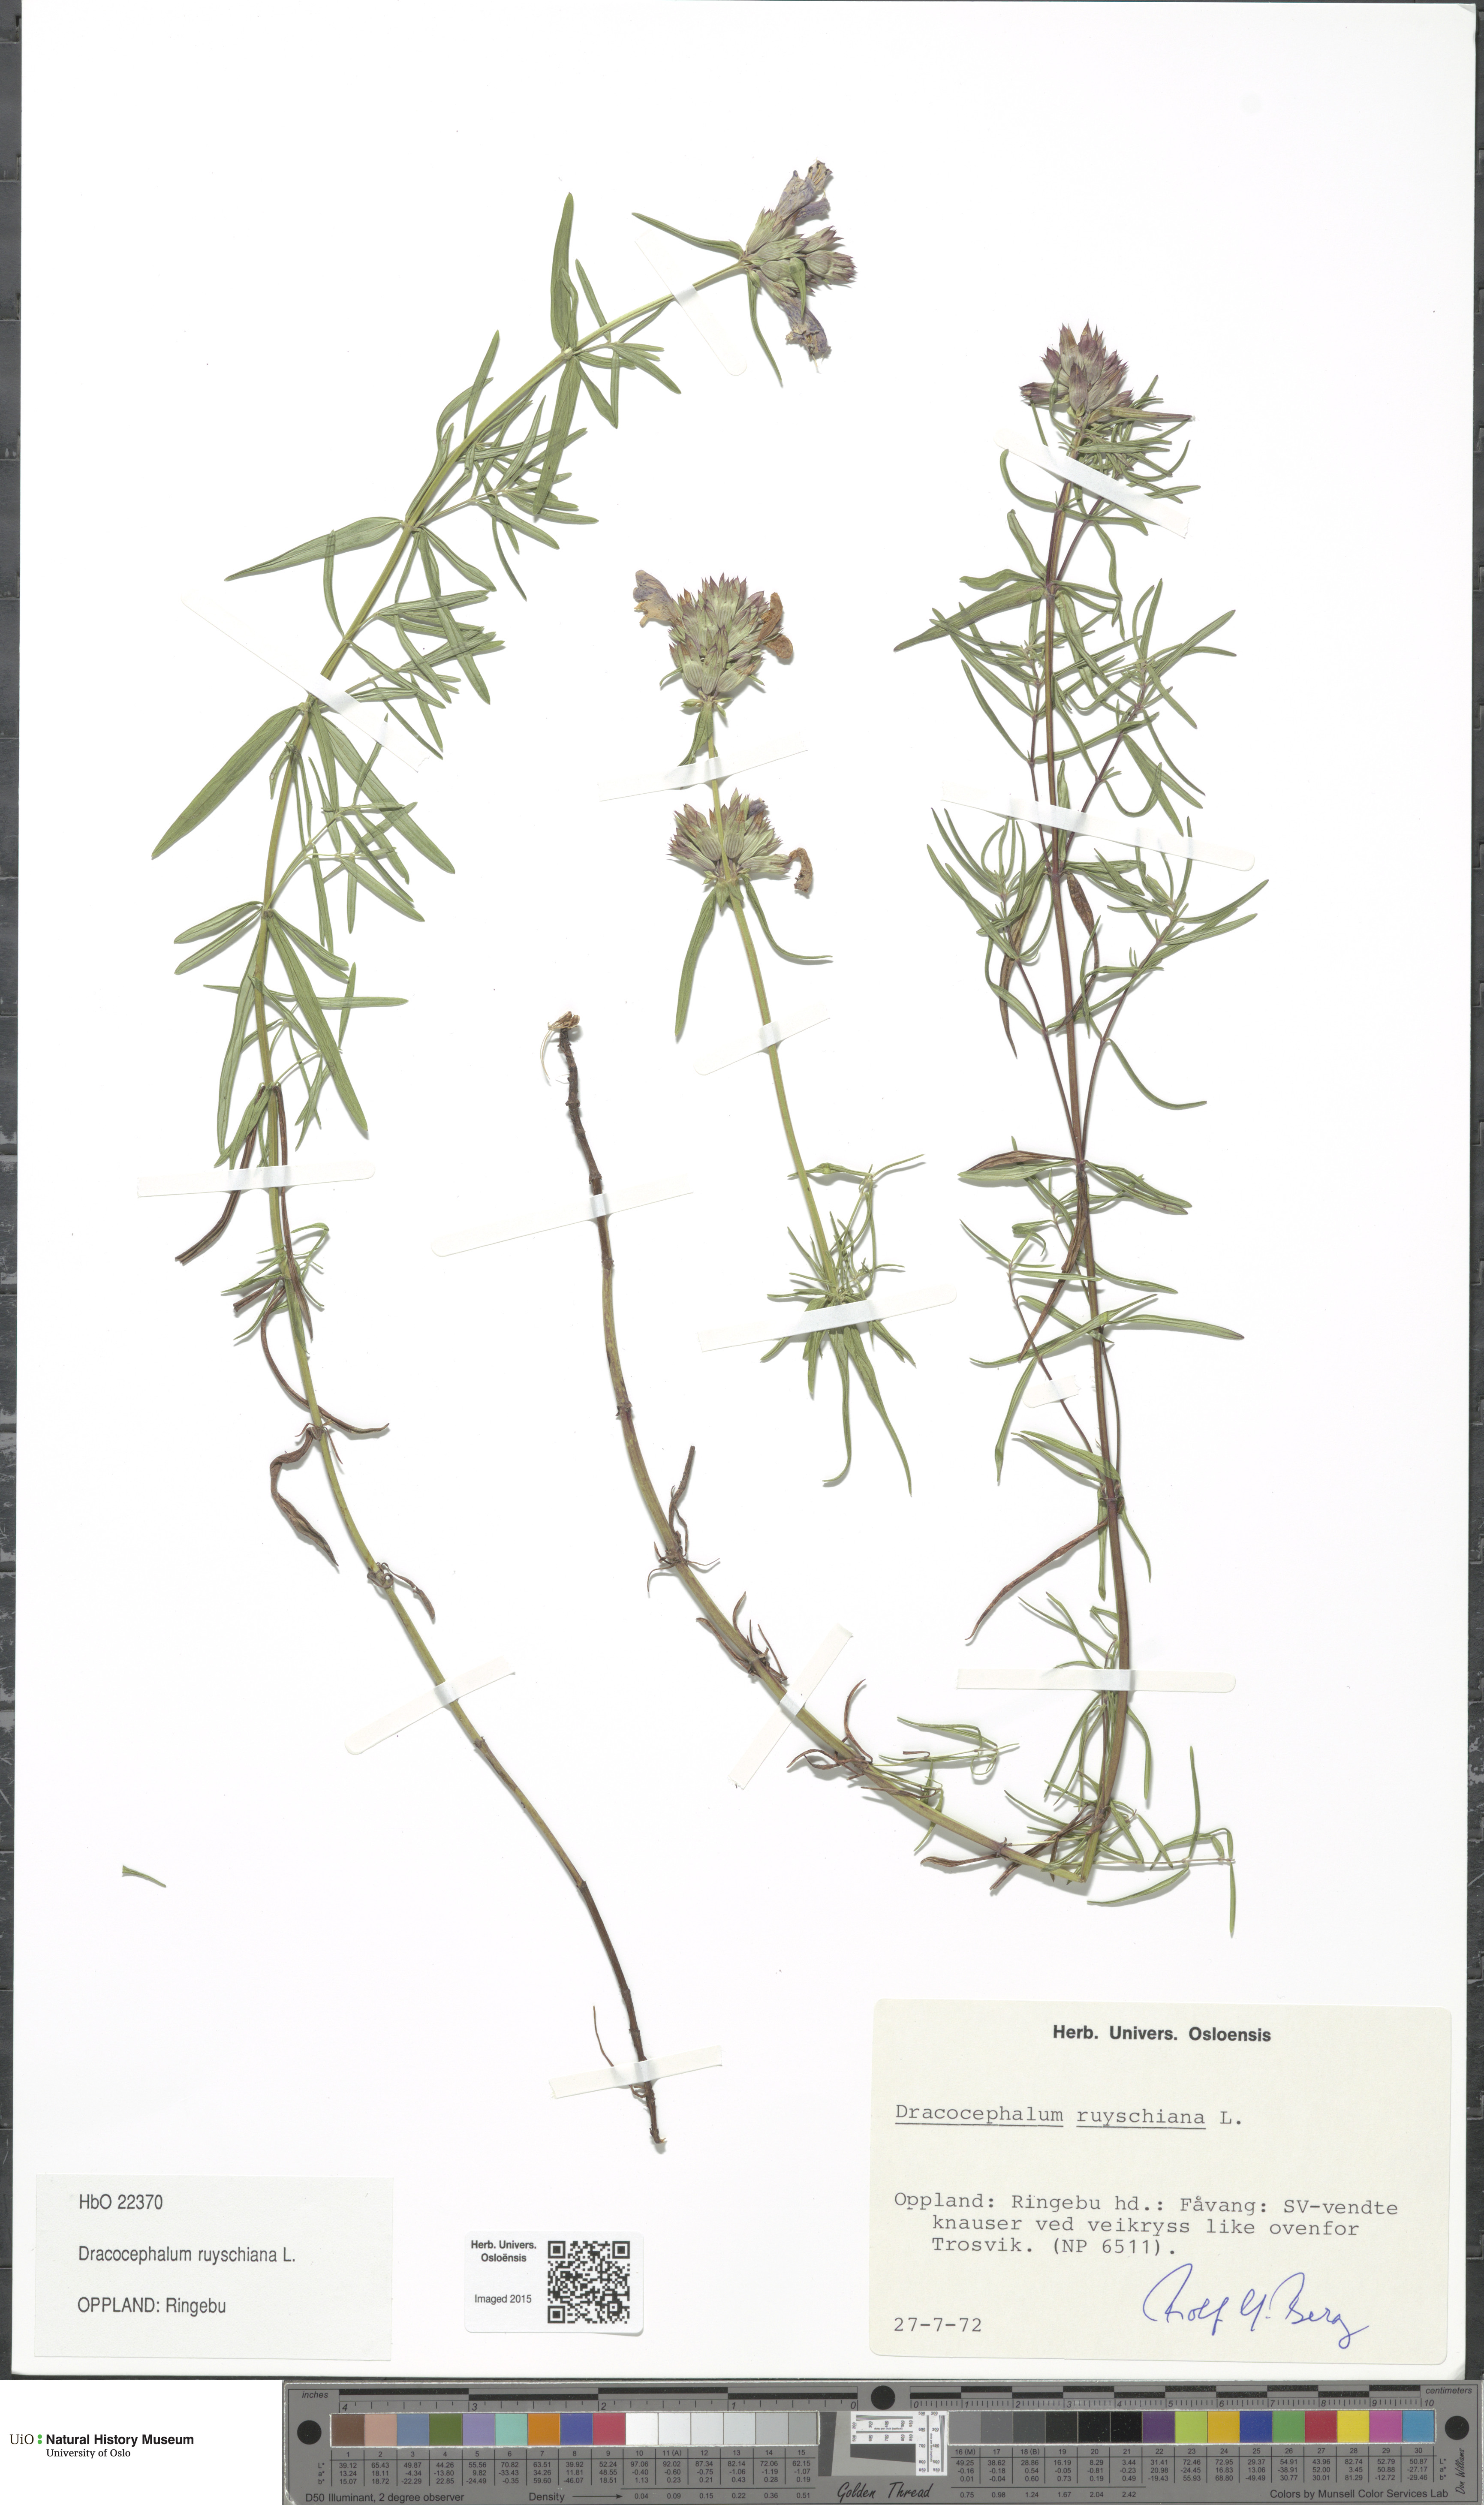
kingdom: Plantae
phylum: Tracheophyta
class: Magnoliopsida
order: Lamiales
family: Lamiaceae
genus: Dracocephalum
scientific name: Dracocephalum ruyschiana
